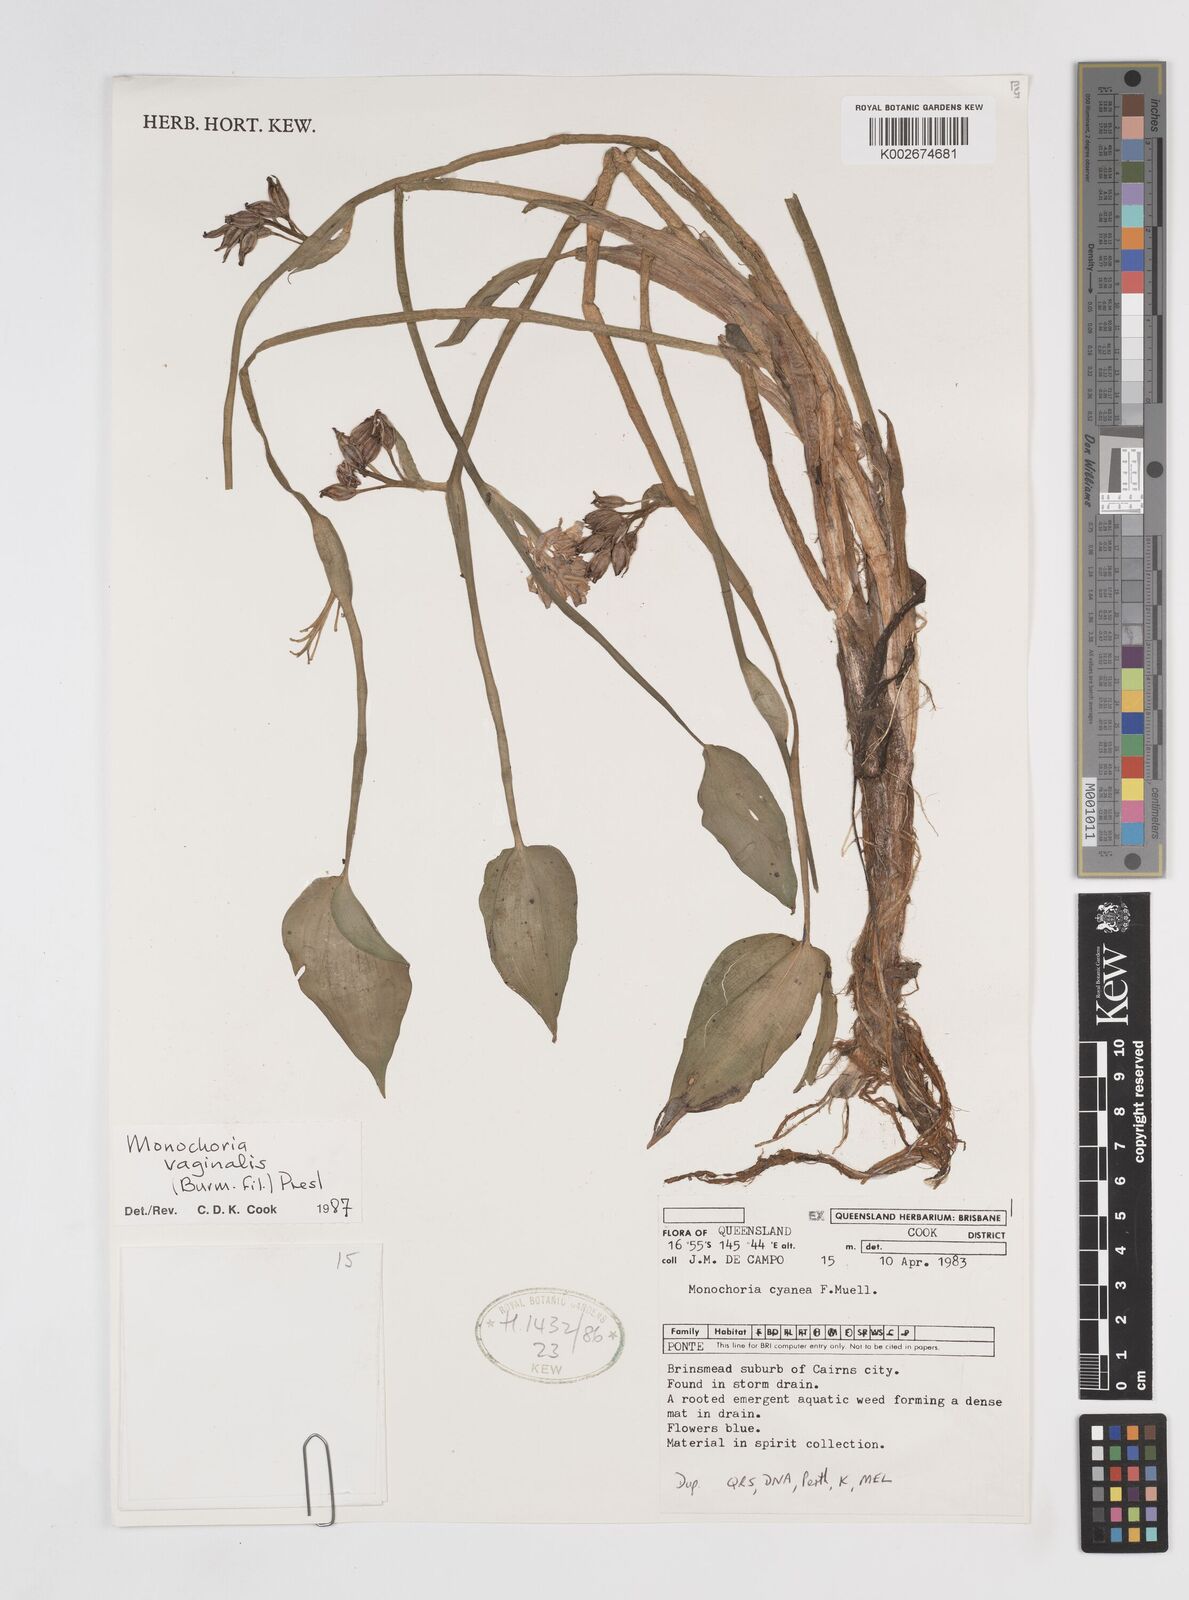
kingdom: Plantae
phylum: Tracheophyta
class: Liliopsida
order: Commelinales
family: Pontederiaceae
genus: Pontederia
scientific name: Pontederia vaginalis
